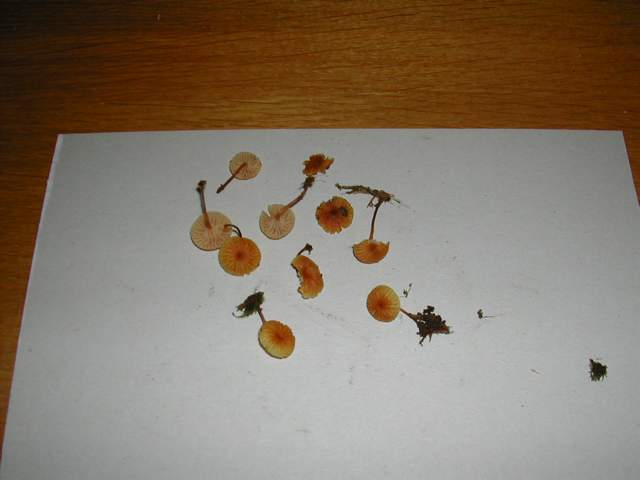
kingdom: Fungi
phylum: Basidiomycota
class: Agaricomycetes
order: Agaricales
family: Mycenaceae
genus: Xeromphalina
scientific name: Xeromphalina campanella
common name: klokke-tørhat
